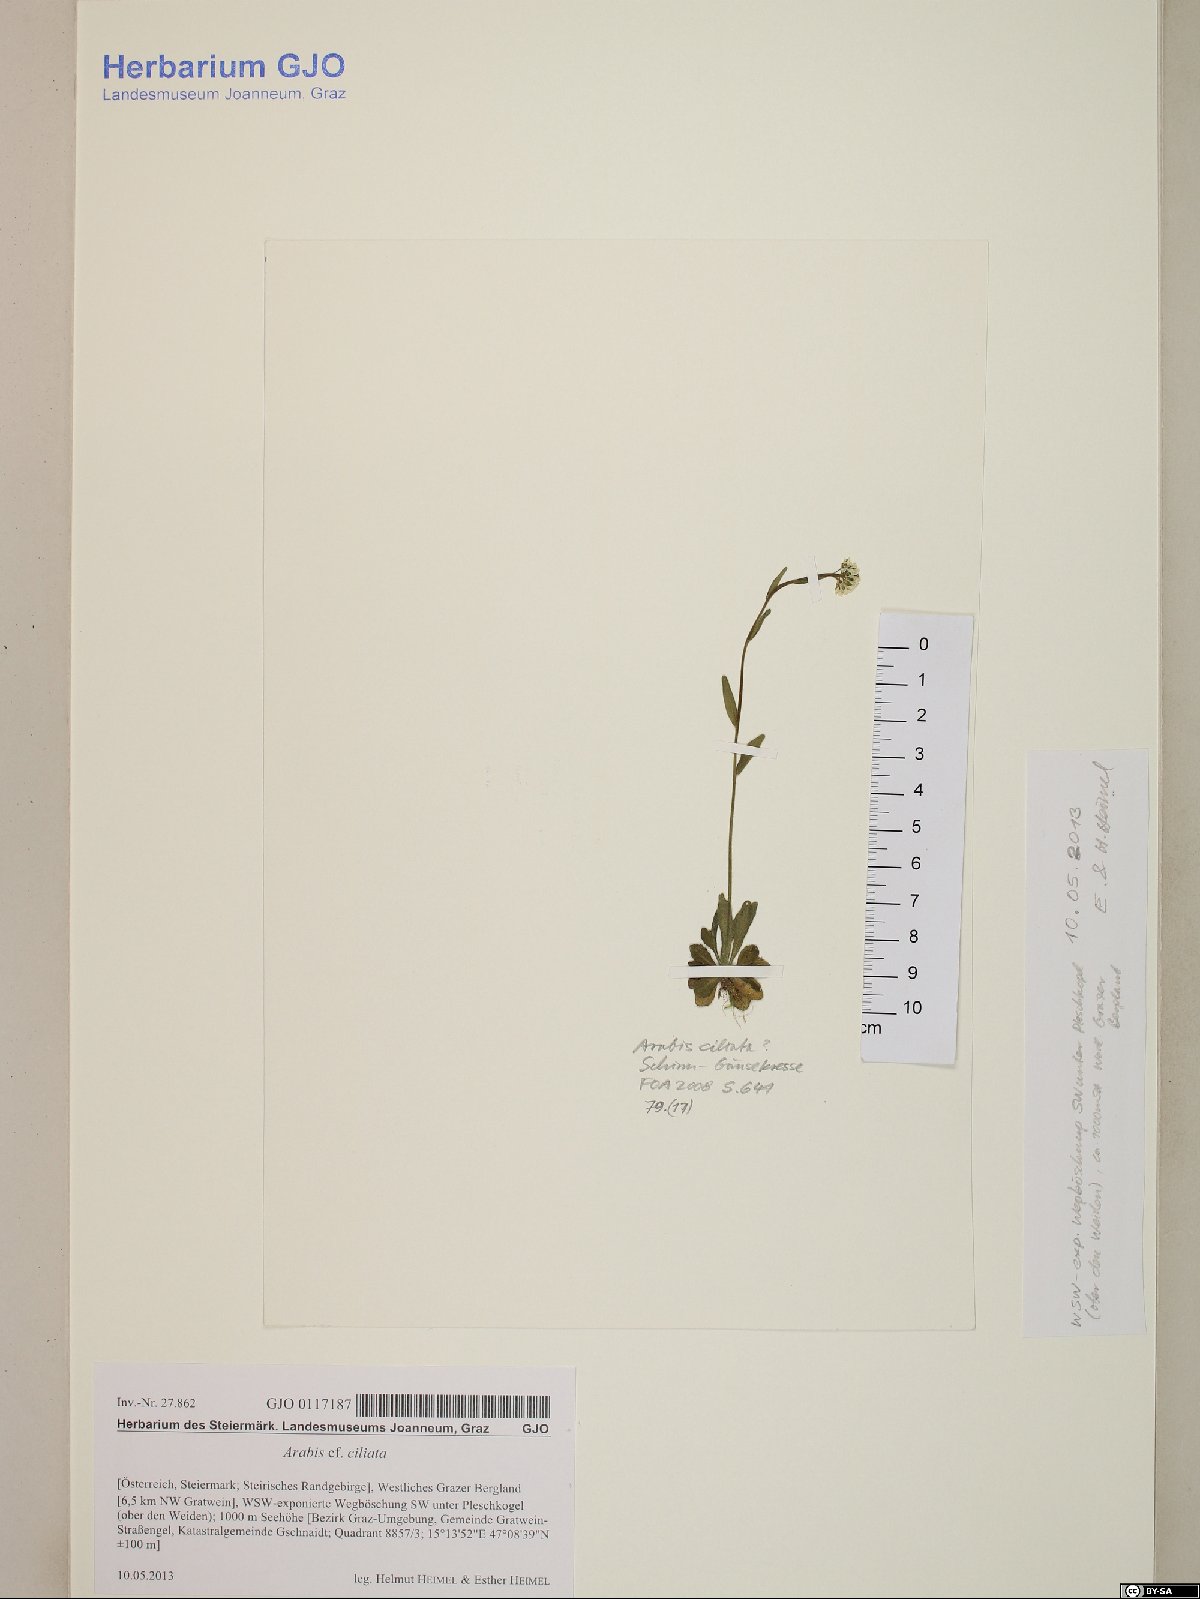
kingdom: Plantae
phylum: Tracheophyta
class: Magnoliopsida
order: Brassicales
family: Brassicaceae
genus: Arabis
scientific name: Arabis ciliata
